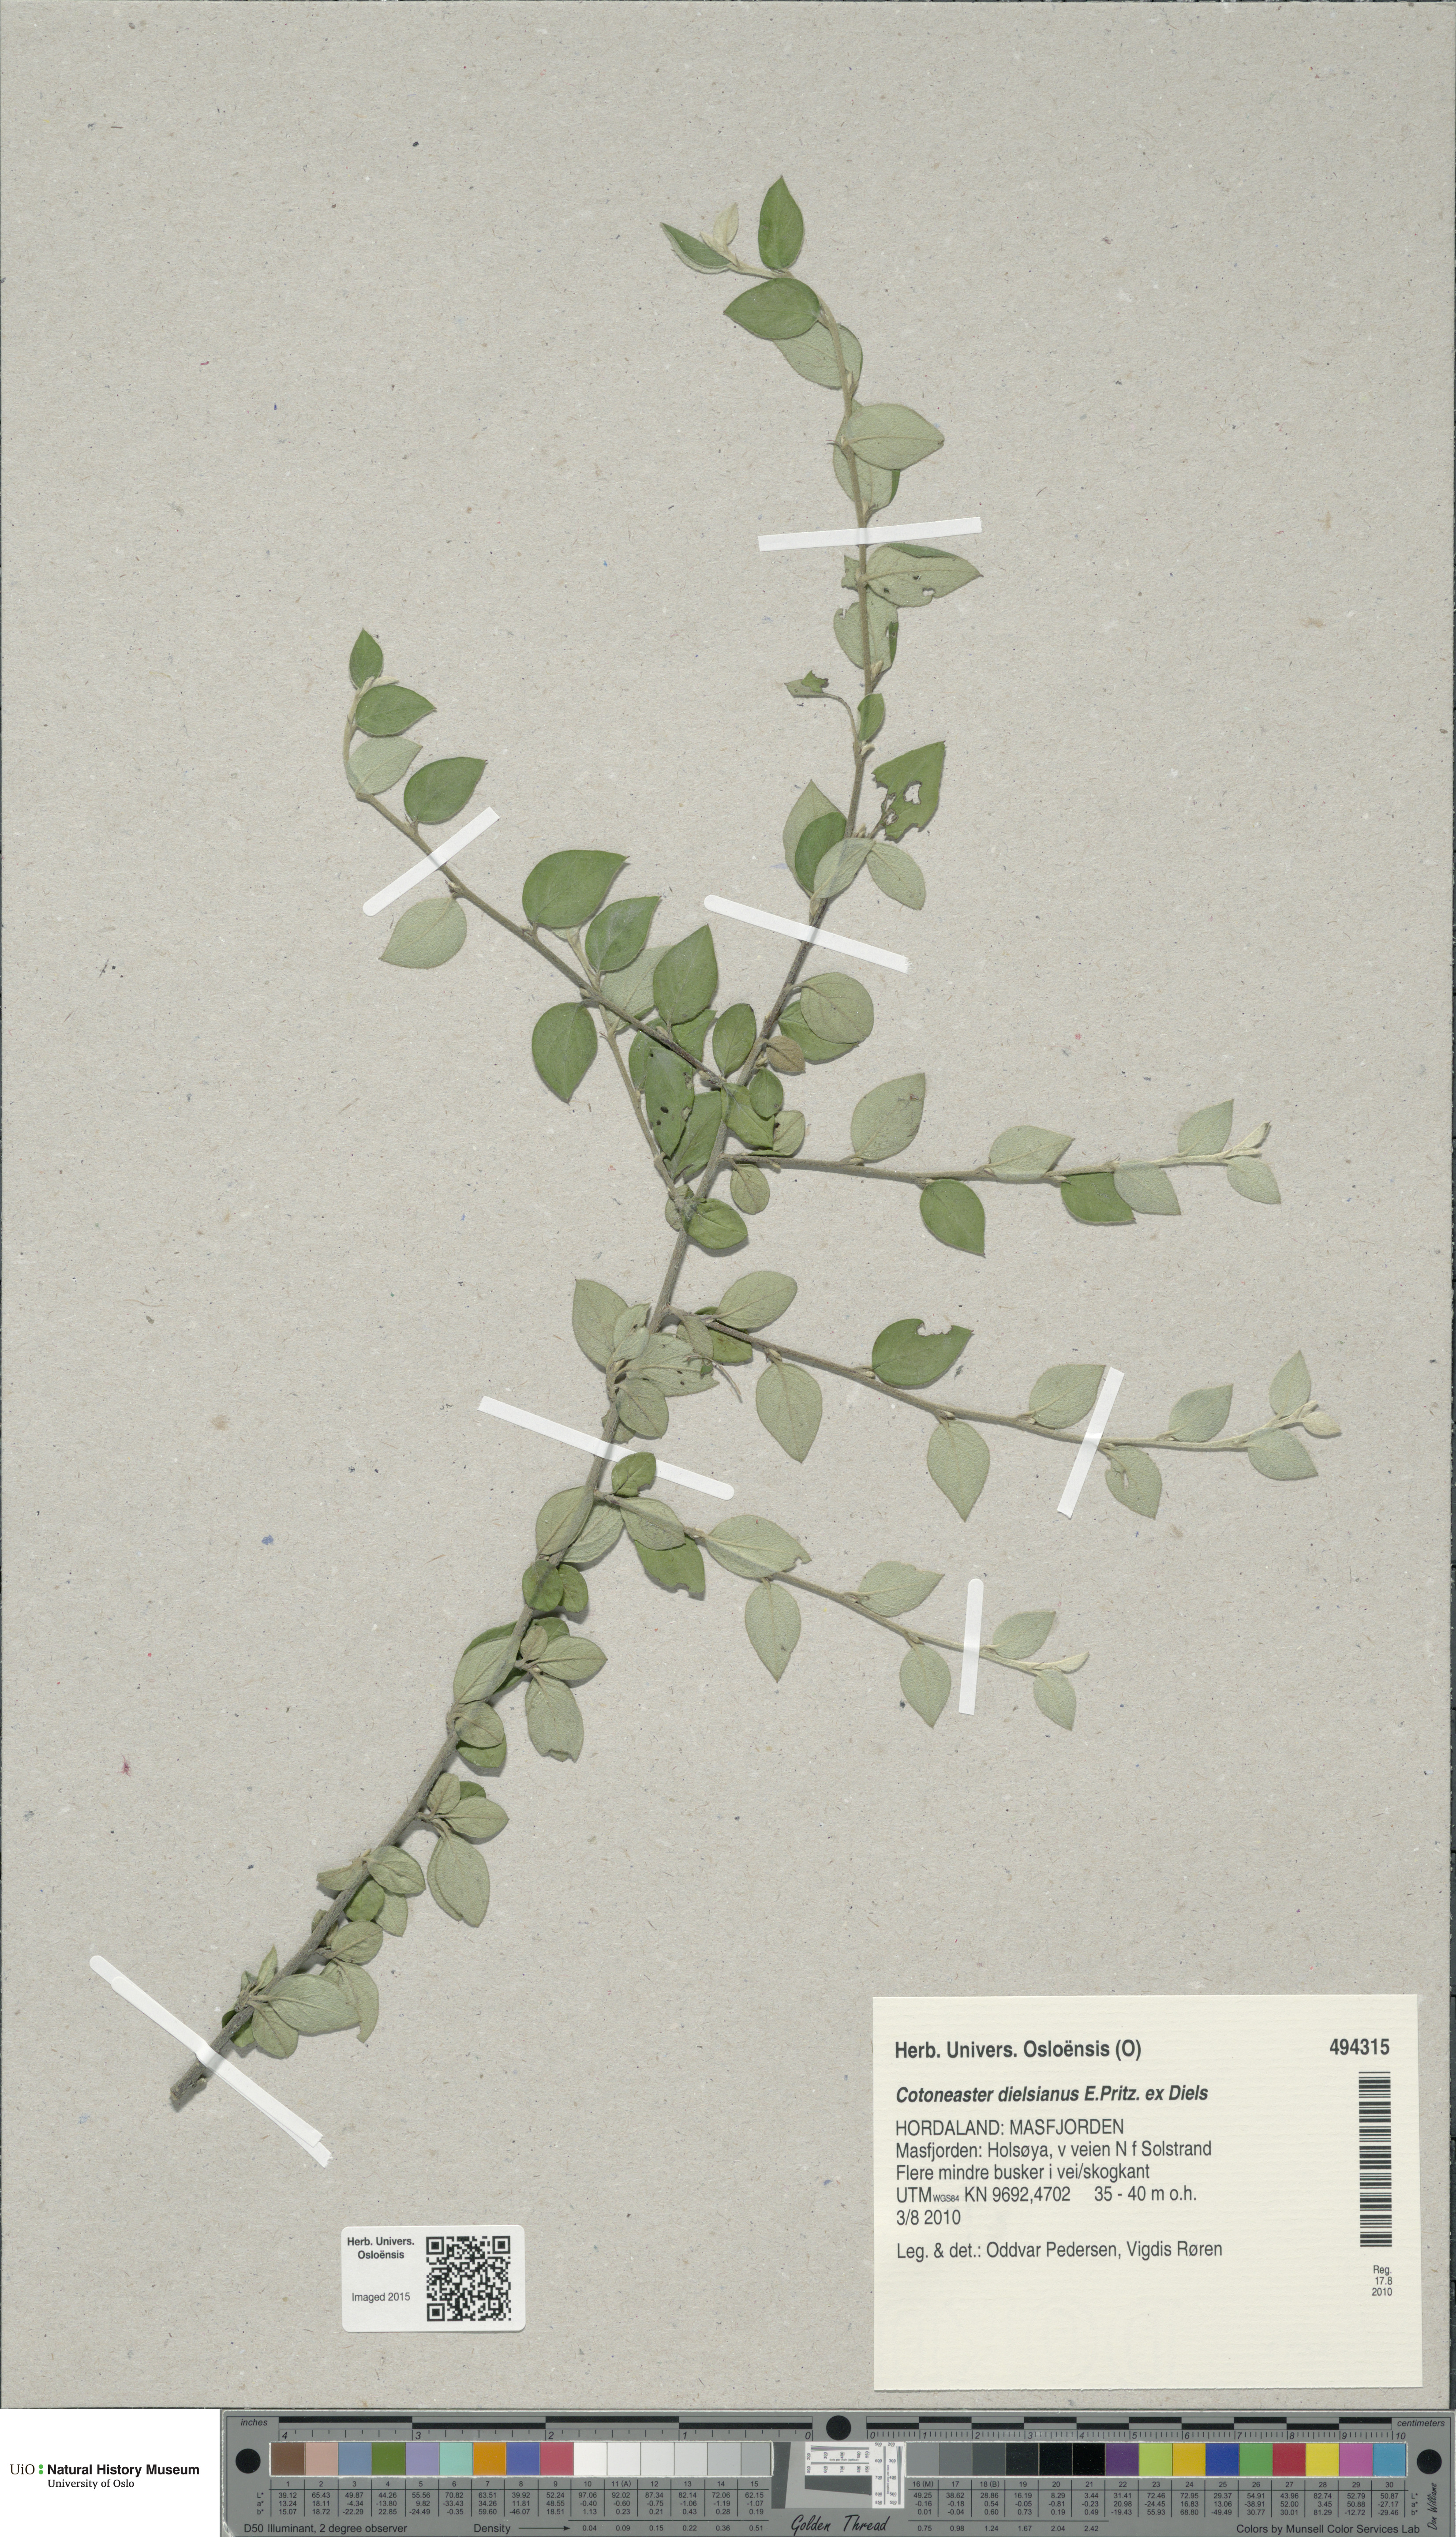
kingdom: Plantae
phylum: Tracheophyta
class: Magnoliopsida
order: Rosales
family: Rosaceae
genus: Cotoneaster
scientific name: Cotoneaster dielsianus
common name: Diels's cotoneaster
